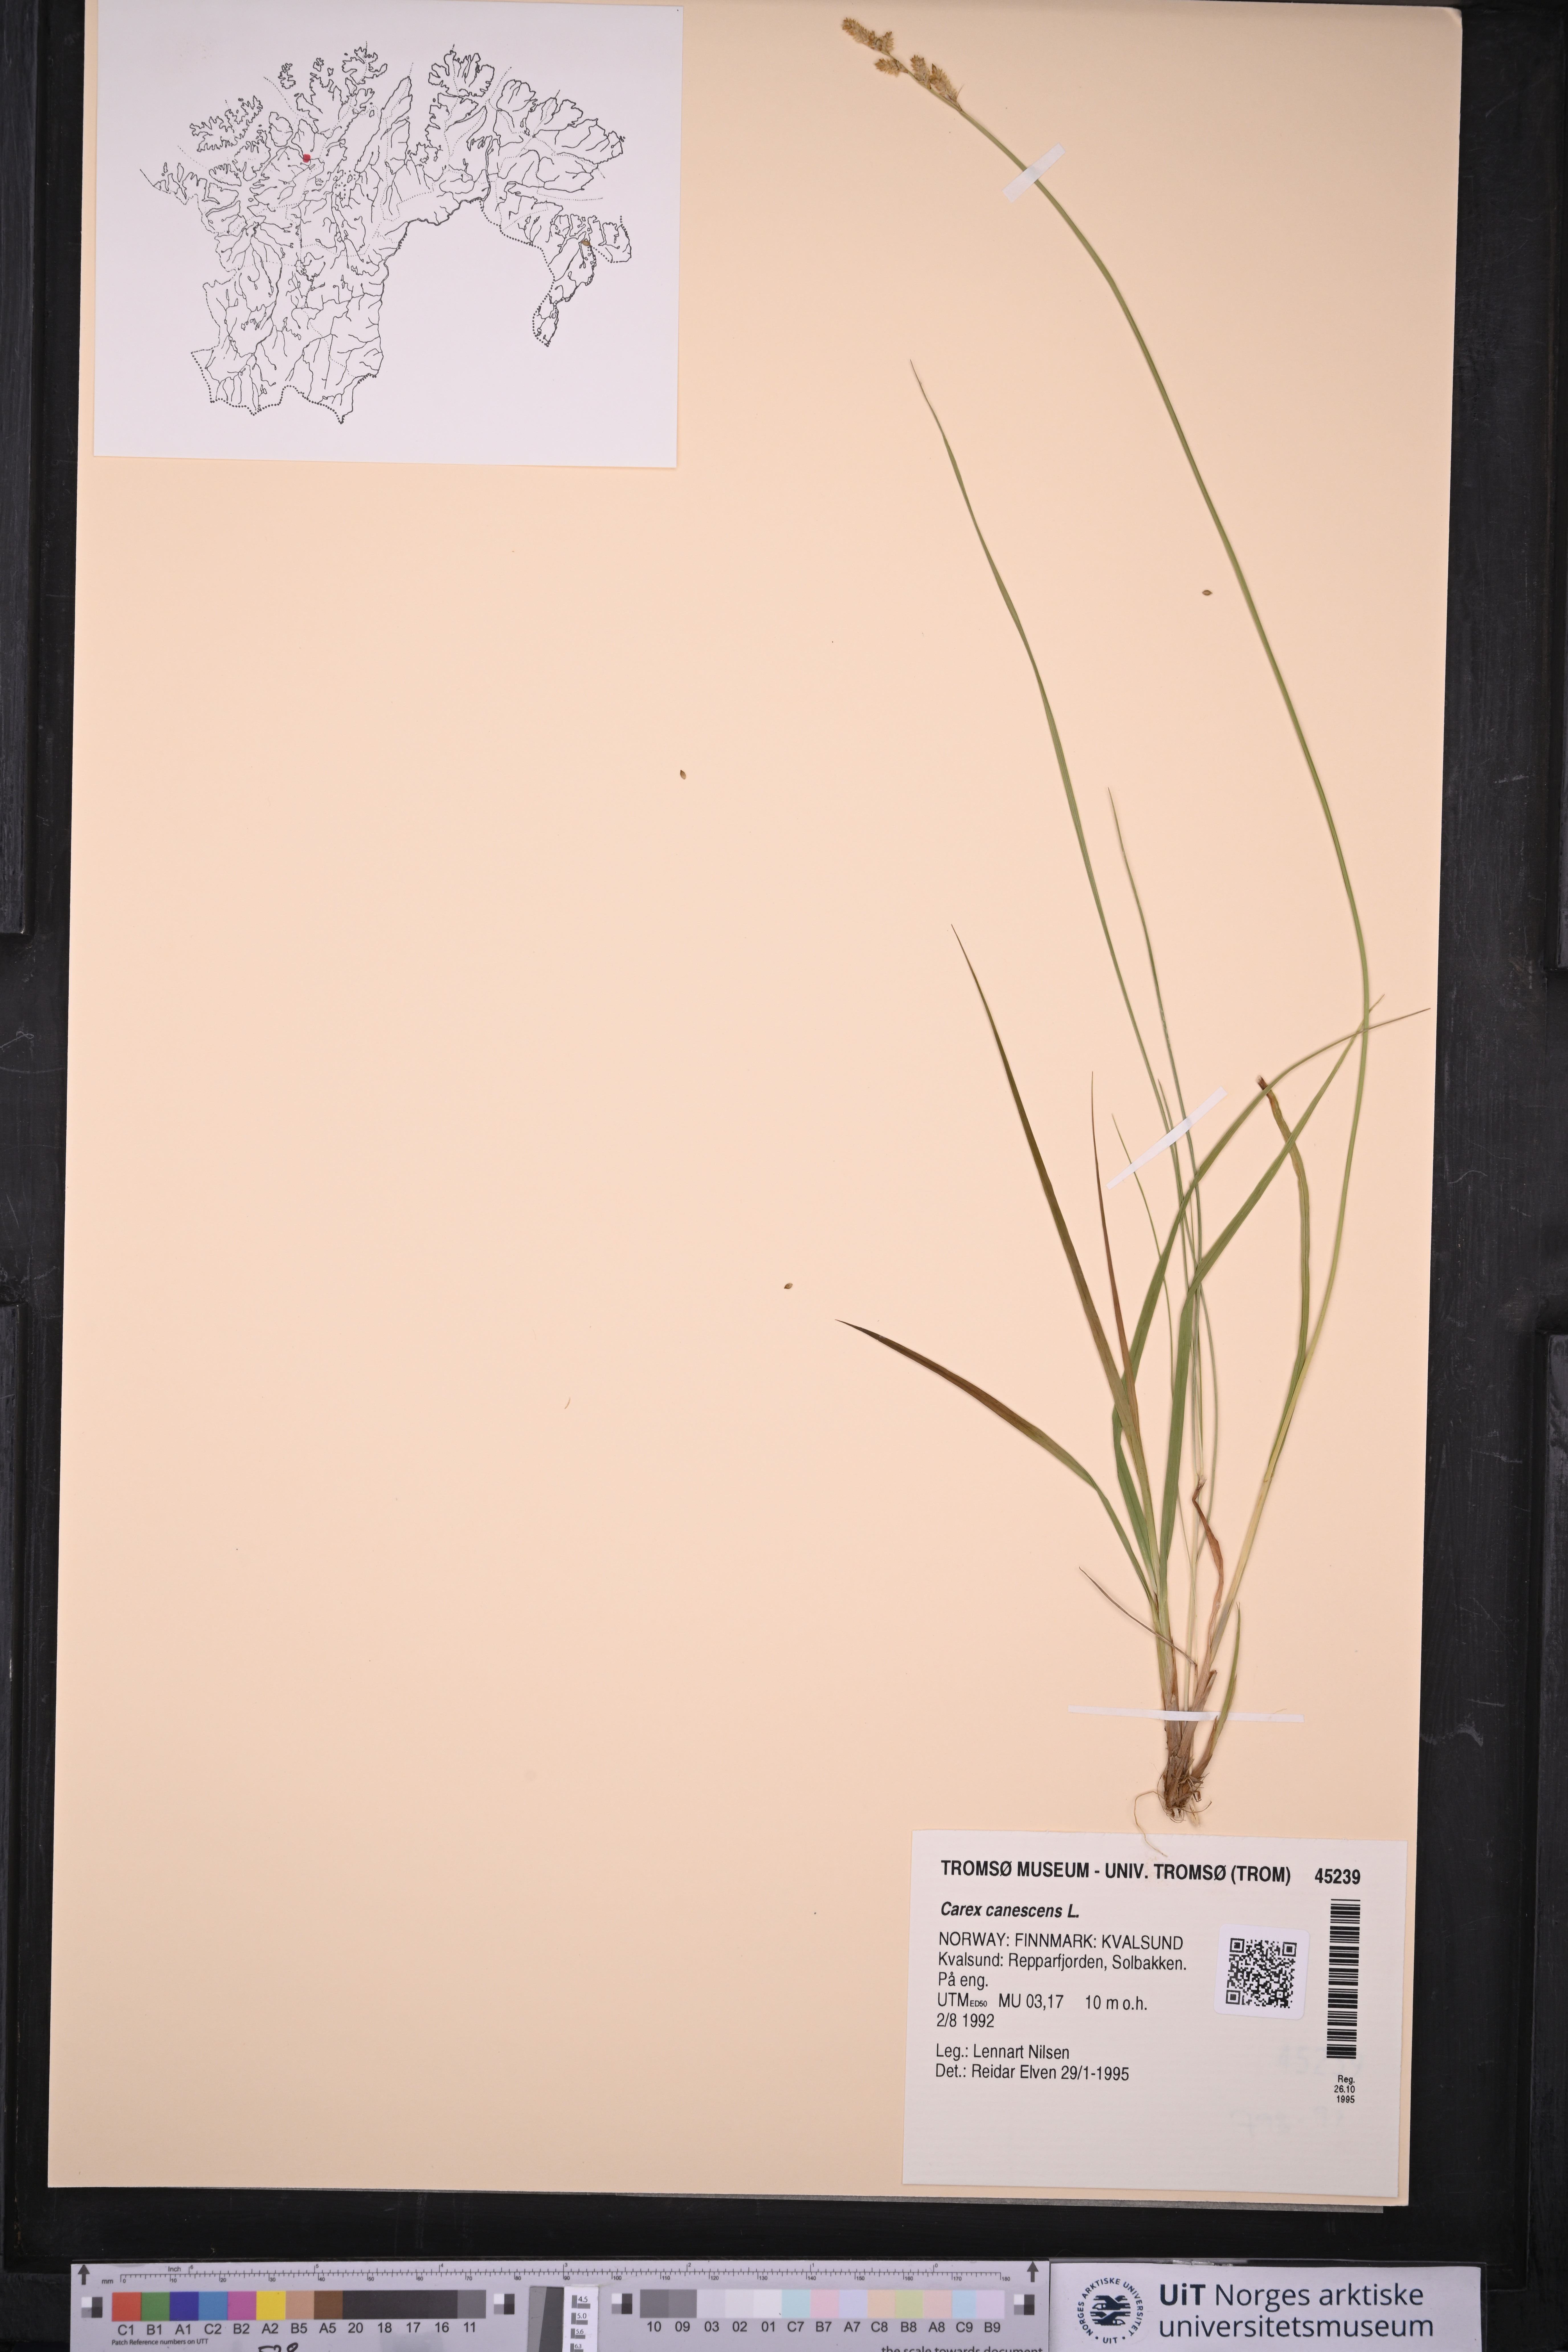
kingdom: Plantae
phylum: Tracheophyta
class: Liliopsida
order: Poales
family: Cyperaceae
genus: Carex
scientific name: Carex canescens
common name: White sedge
